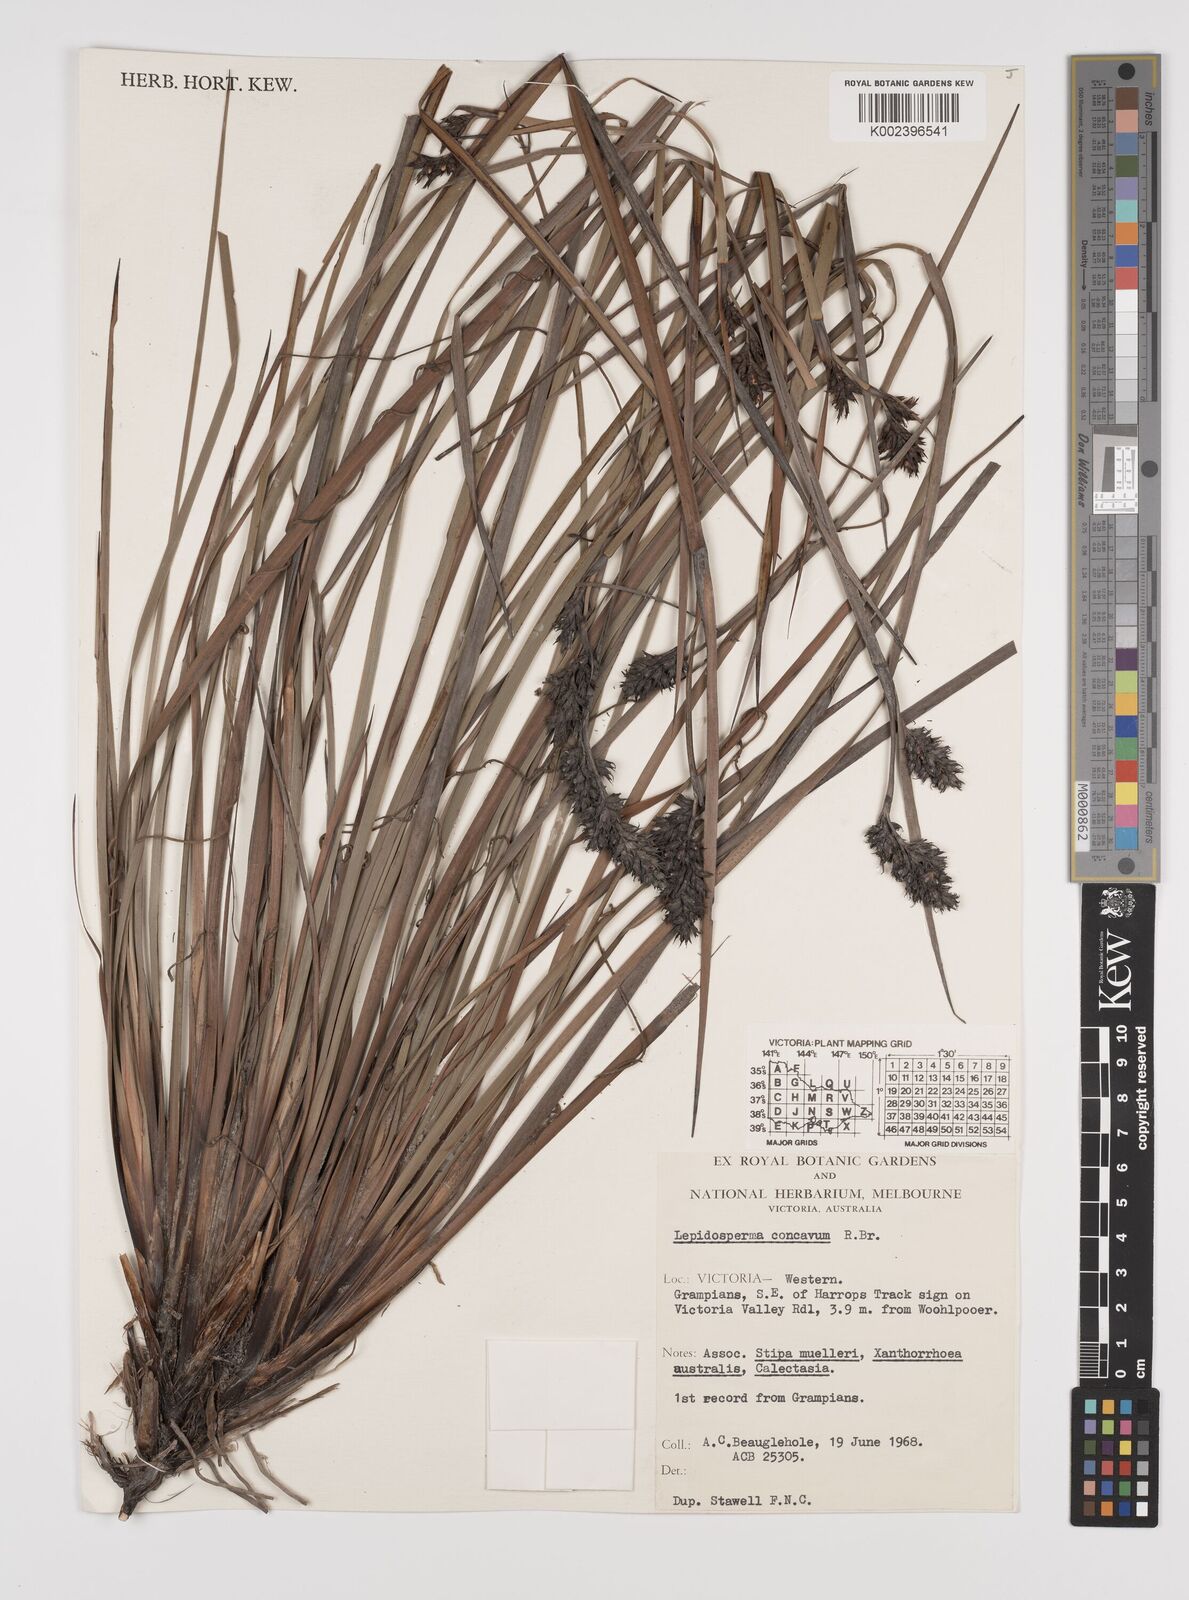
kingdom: Plantae
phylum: Tracheophyta
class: Liliopsida
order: Poales
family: Cyperaceae
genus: Lepidosperma
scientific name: Lepidosperma concavum
